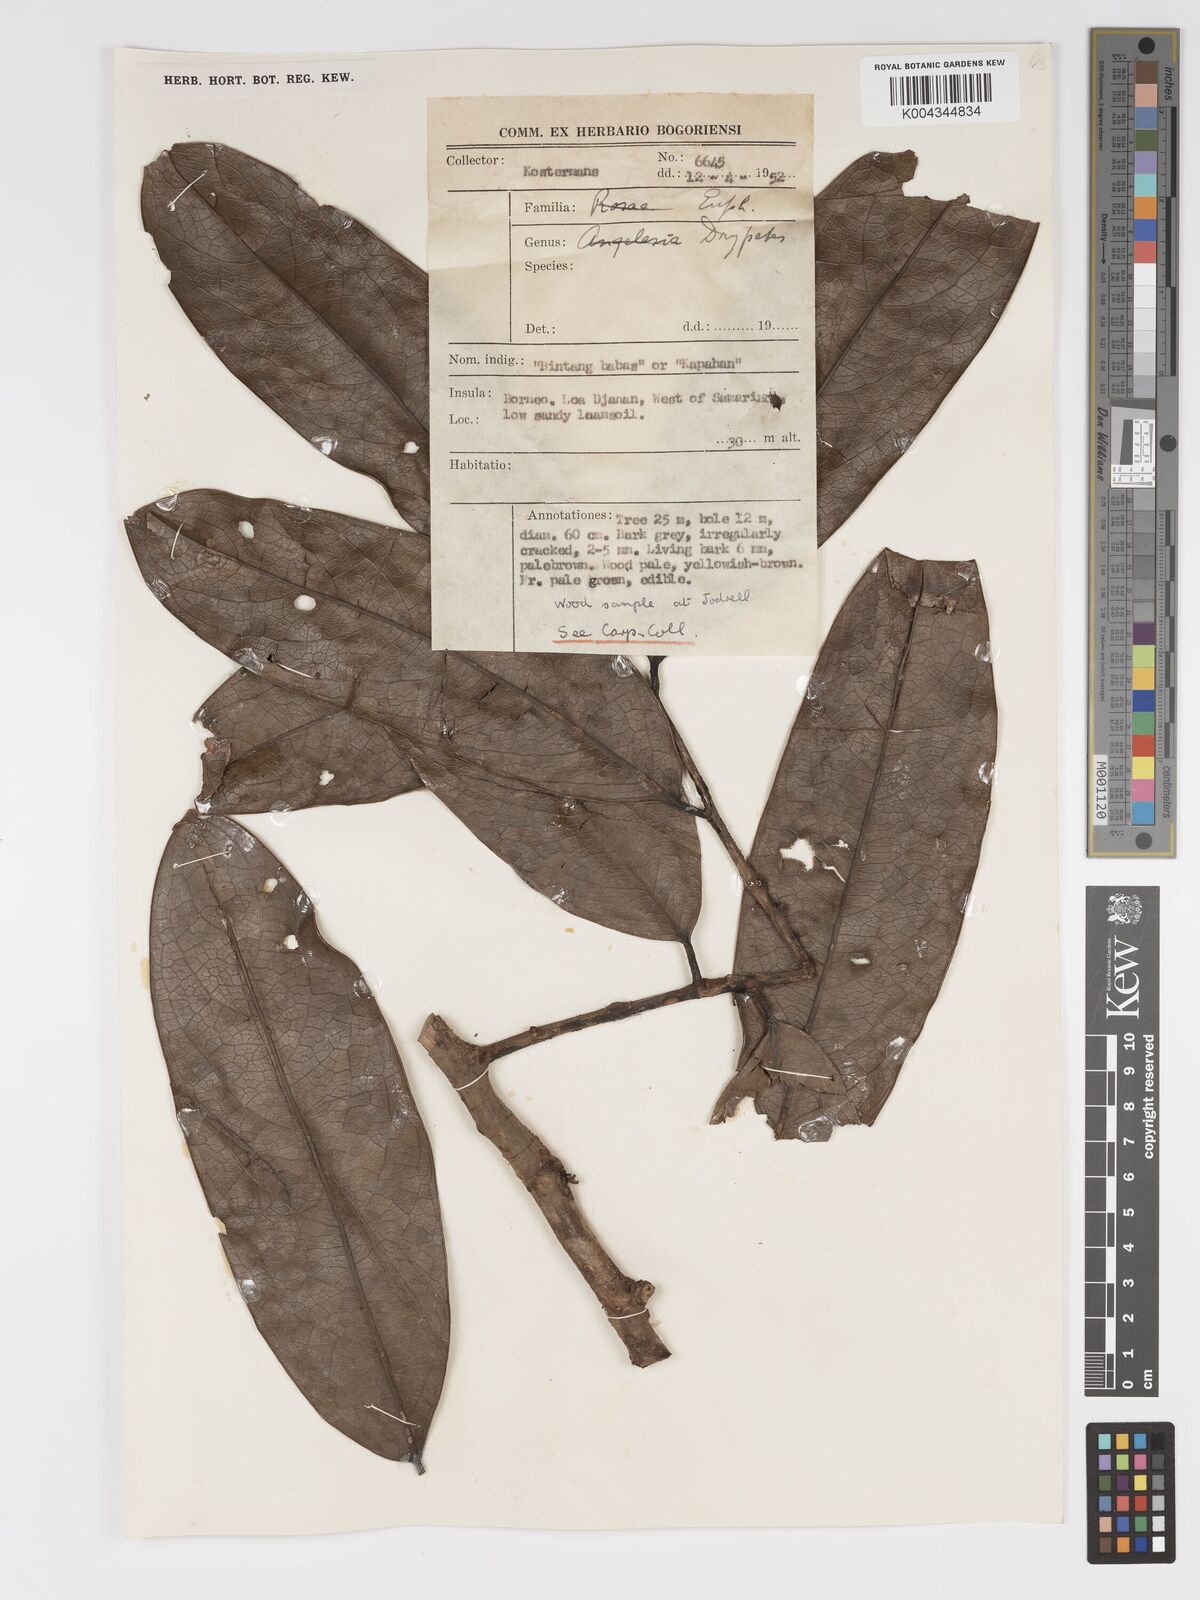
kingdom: Plantae
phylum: Tracheophyta
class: Magnoliopsida
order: Malpighiales
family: Putranjivaceae
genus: Drypetes
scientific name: Drypetes macrostigma
